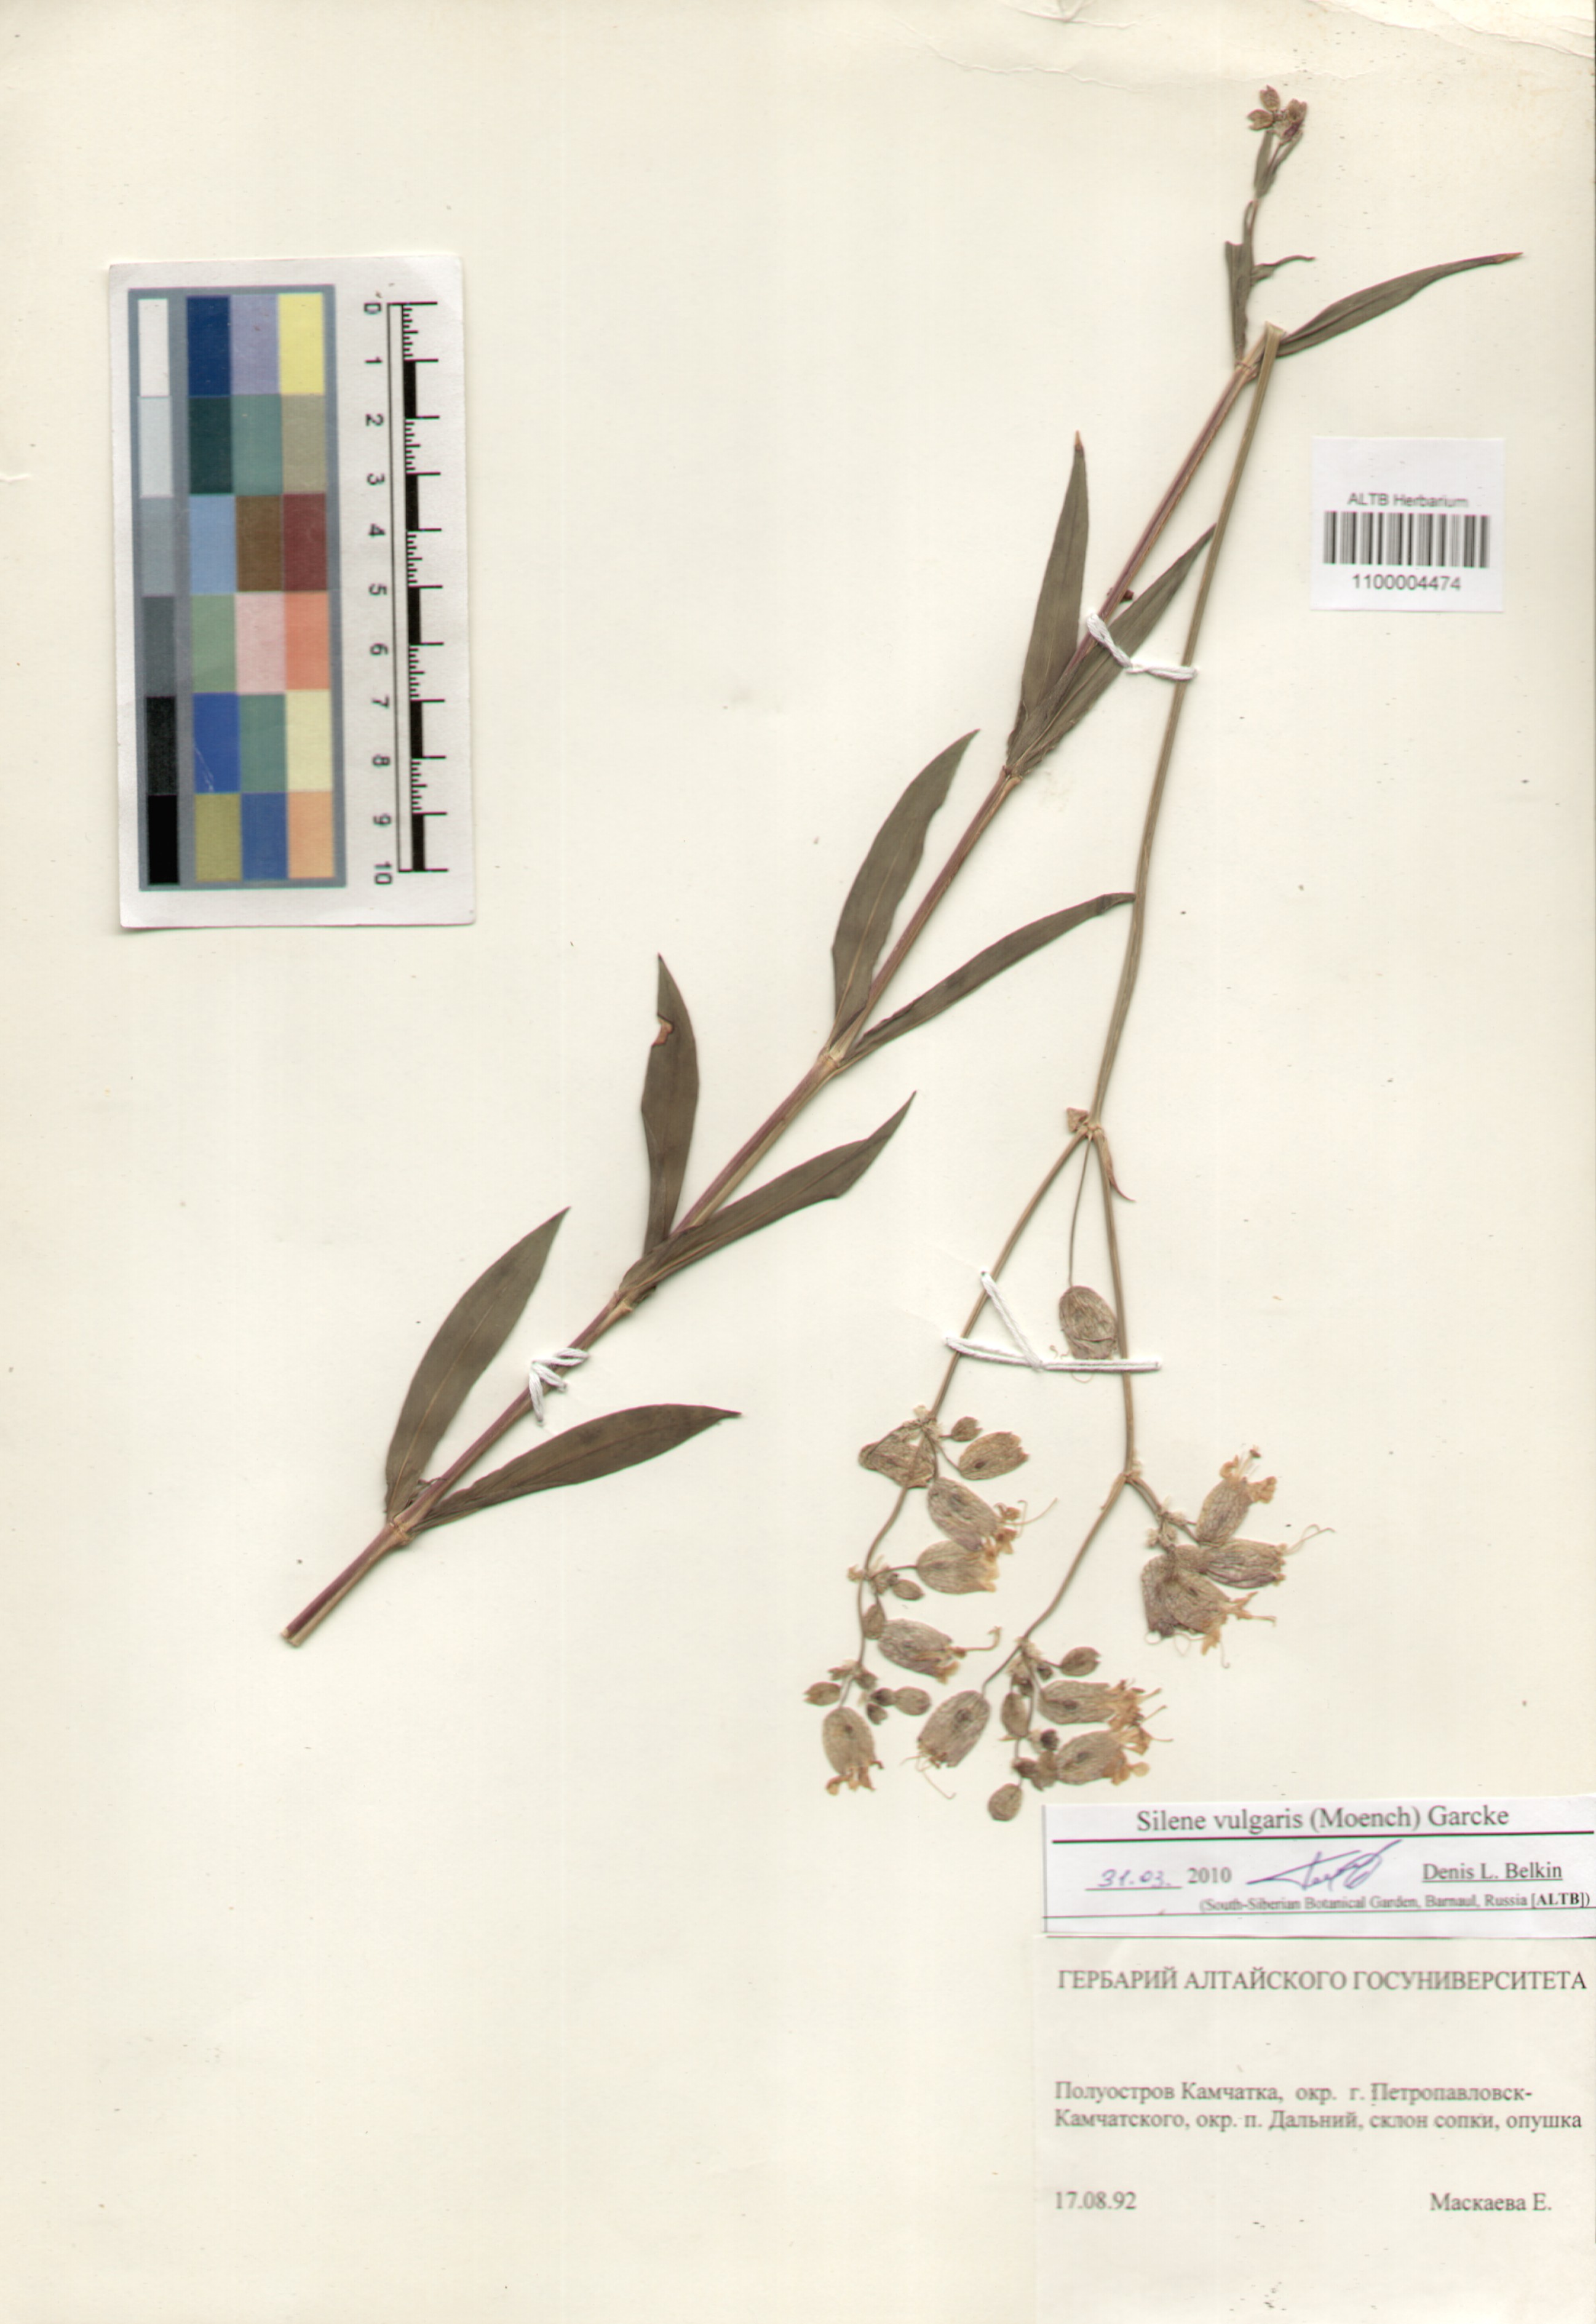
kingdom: Plantae
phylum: Tracheophyta
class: Magnoliopsida
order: Caryophyllales
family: Caryophyllaceae
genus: Silene
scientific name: Silene vulgaris
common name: Bladder campion
